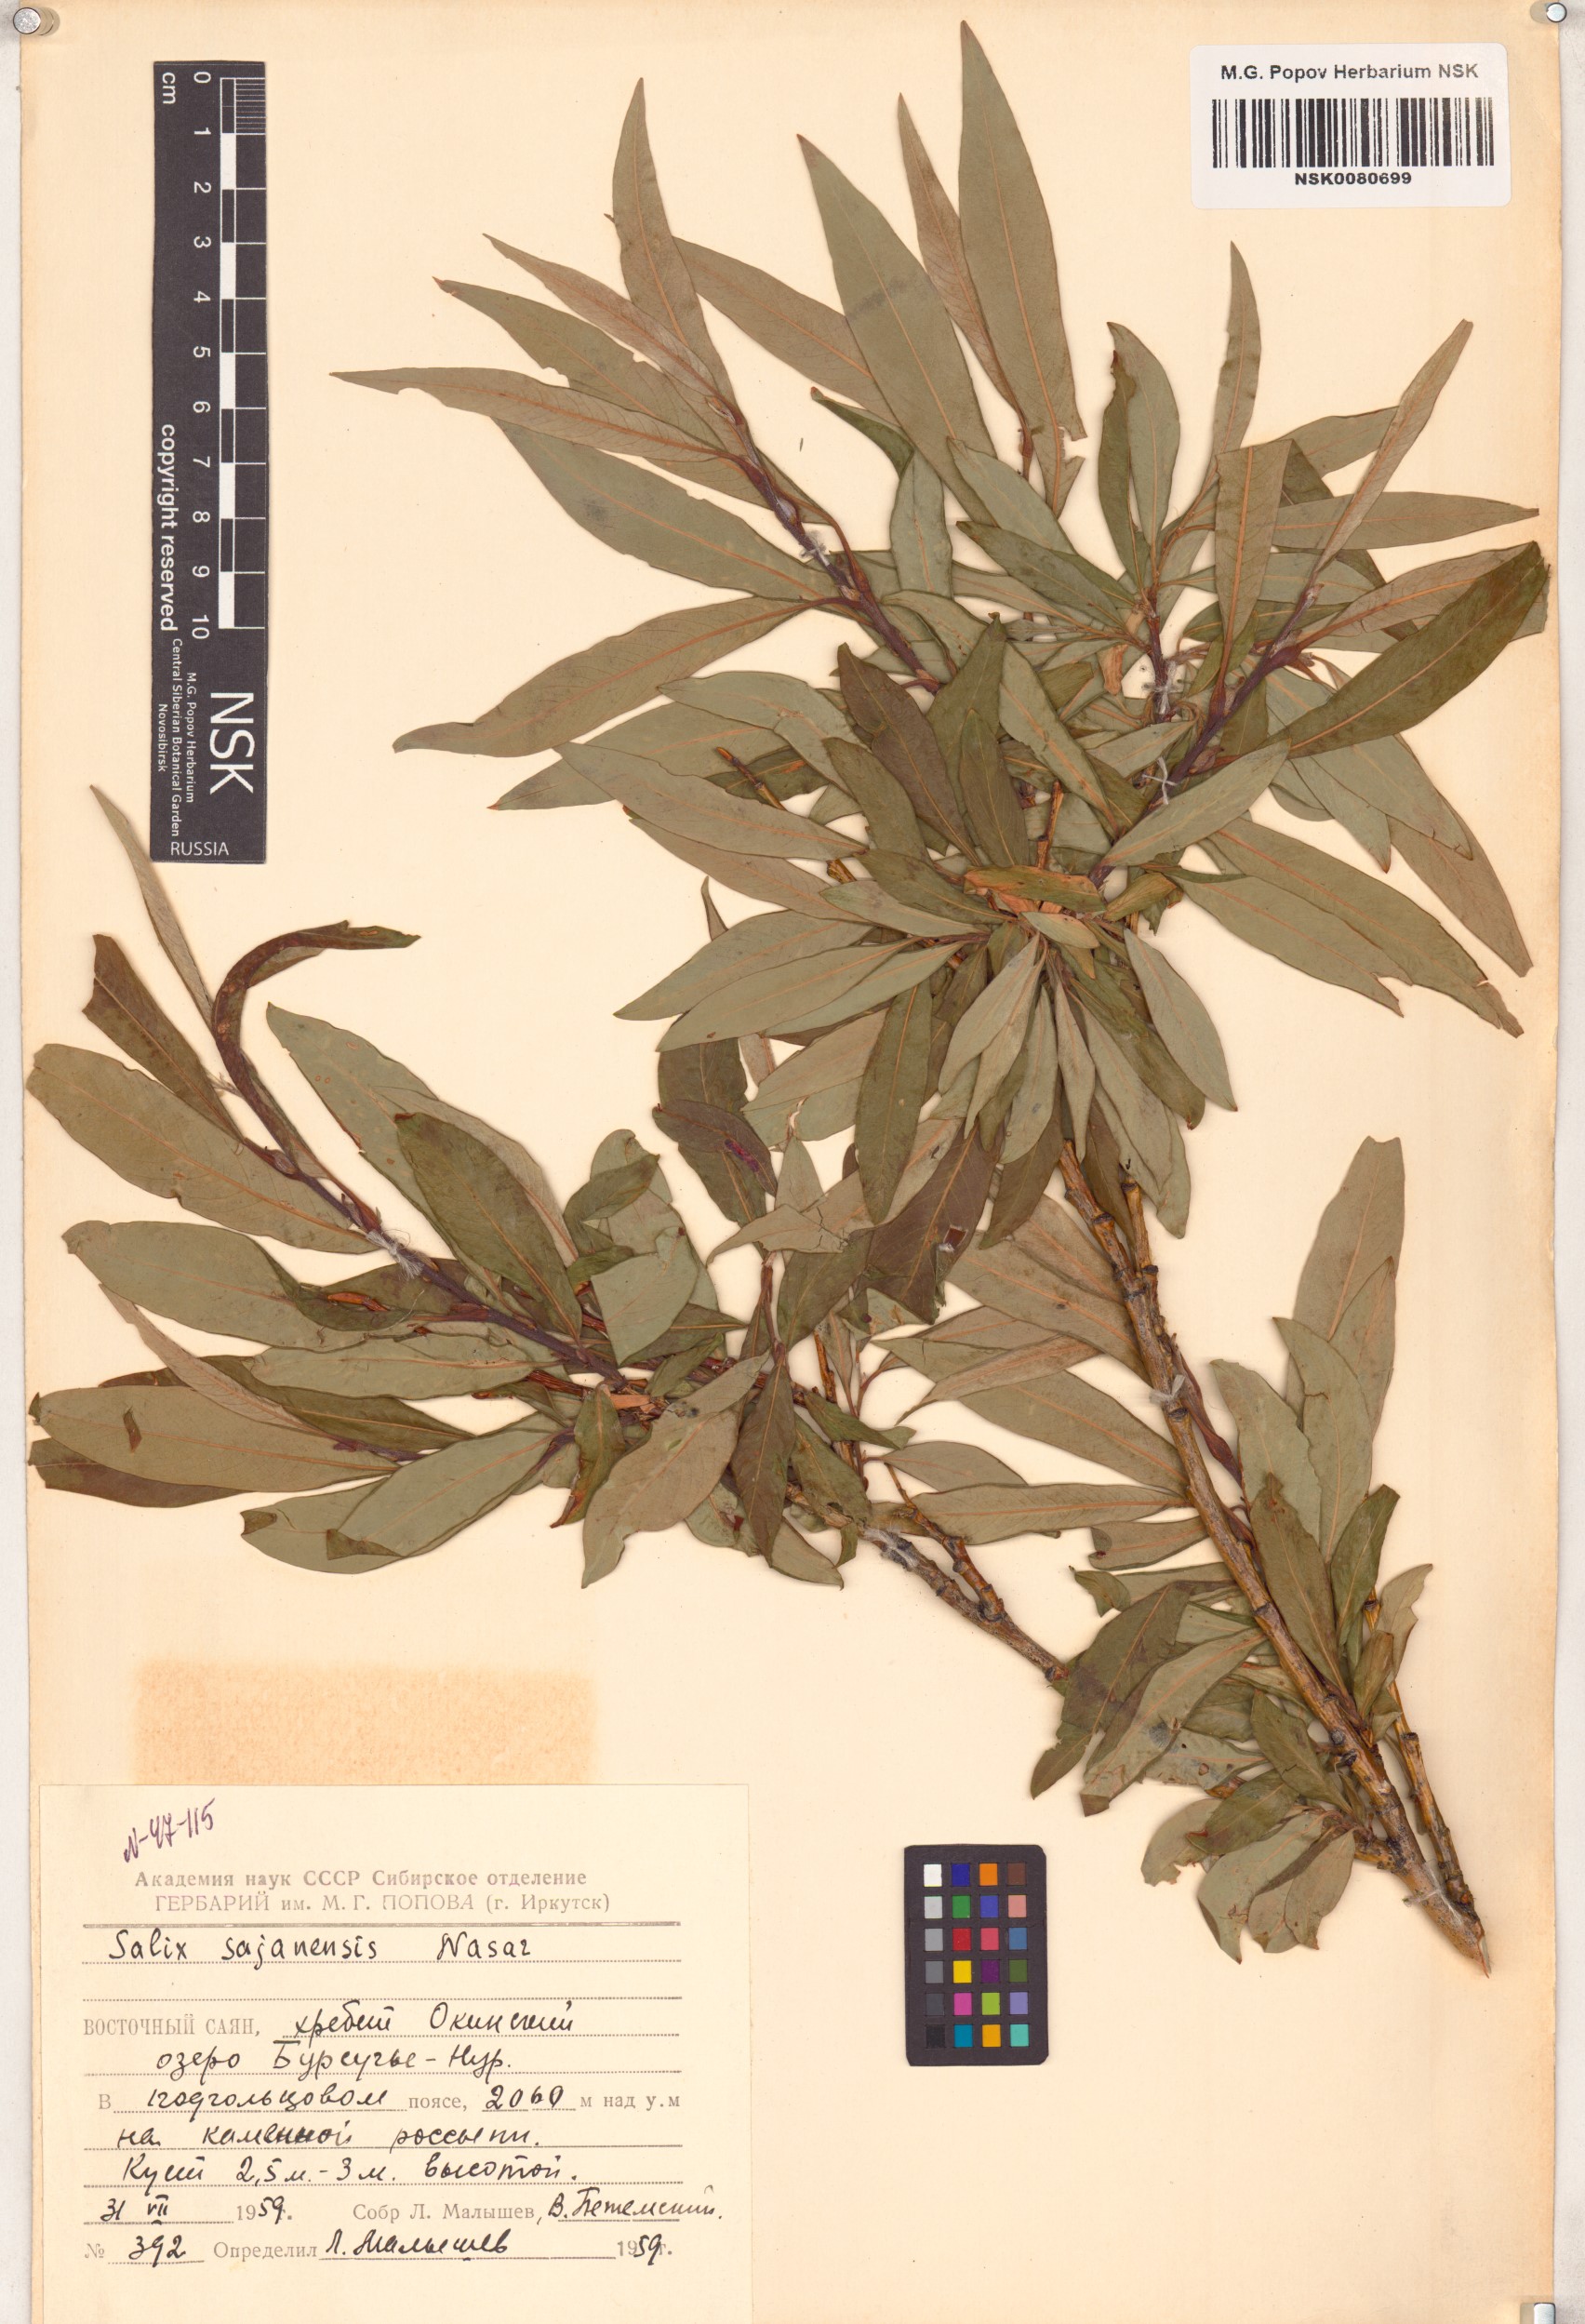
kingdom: Plantae
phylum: Tracheophyta
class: Magnoliopsida
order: Malpighiales
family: Salicaceae
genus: Salix
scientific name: Salix sajanensis
